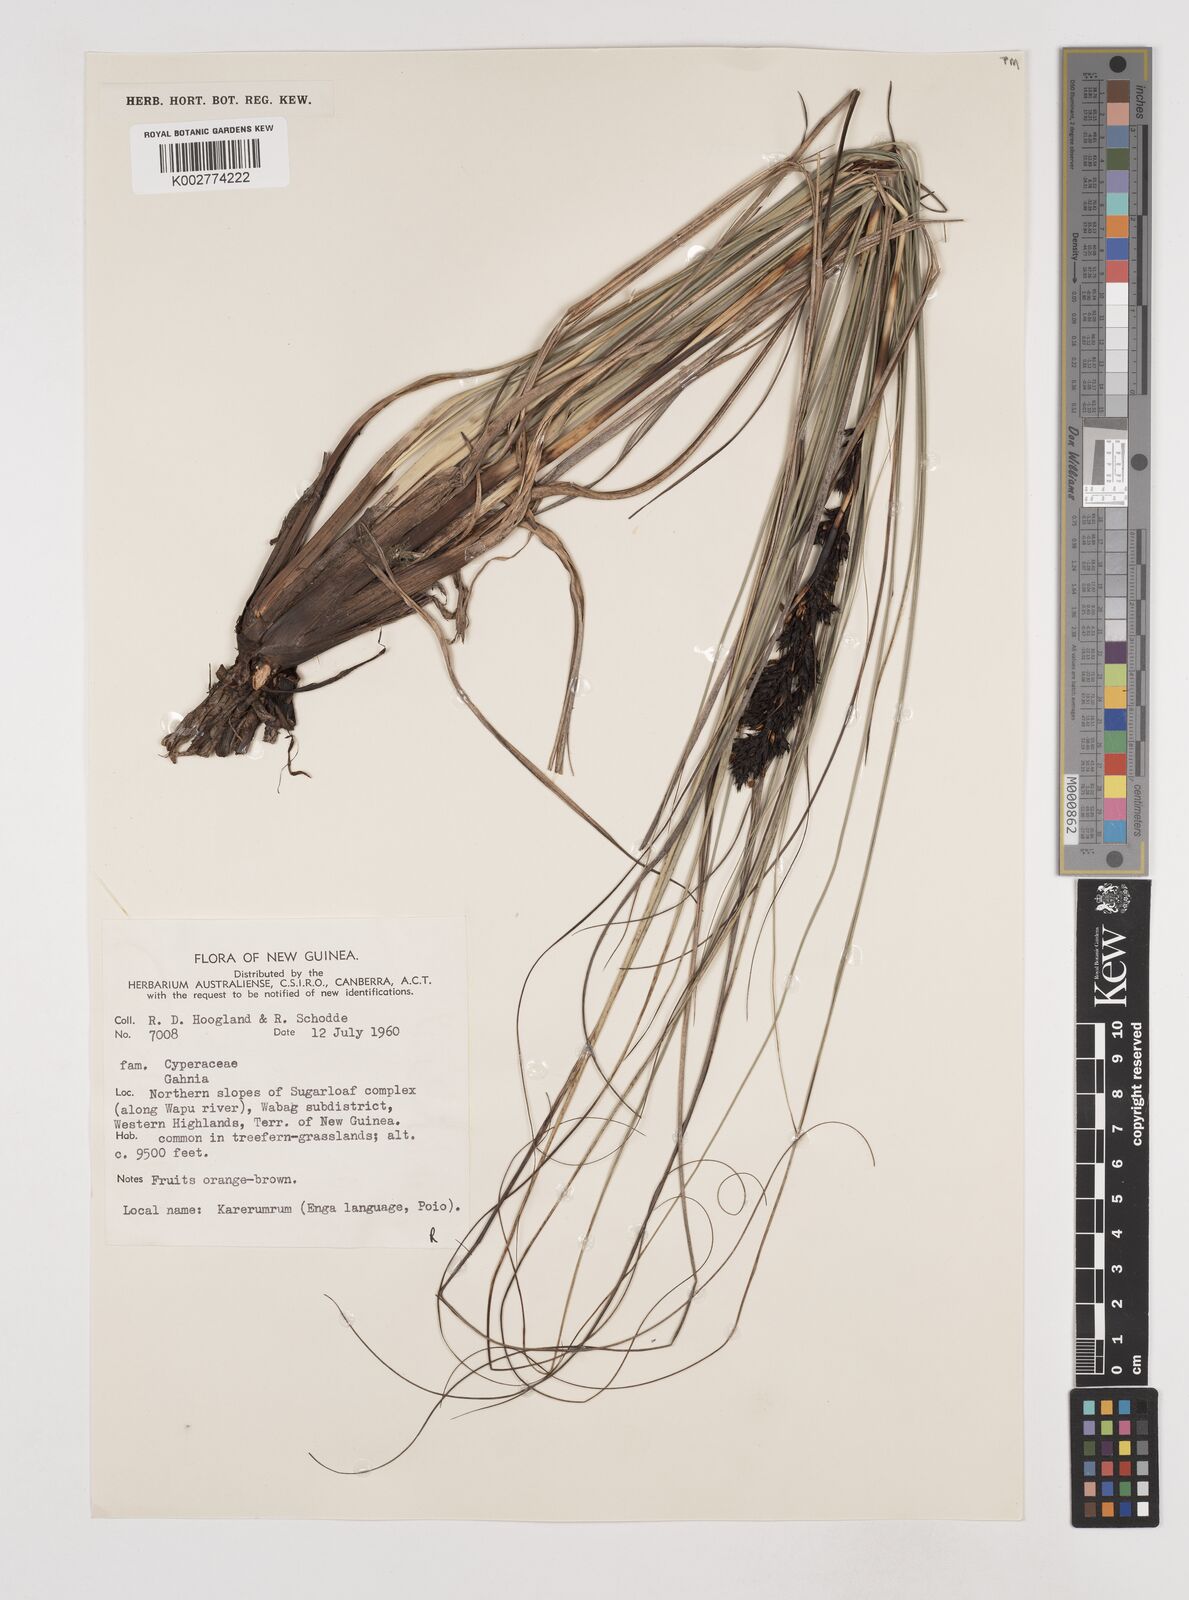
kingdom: Plantae
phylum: Tracheophyta
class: Liliopsida
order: Poales
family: Cyperaceae
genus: Gahnia
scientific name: Gahnia javanica
